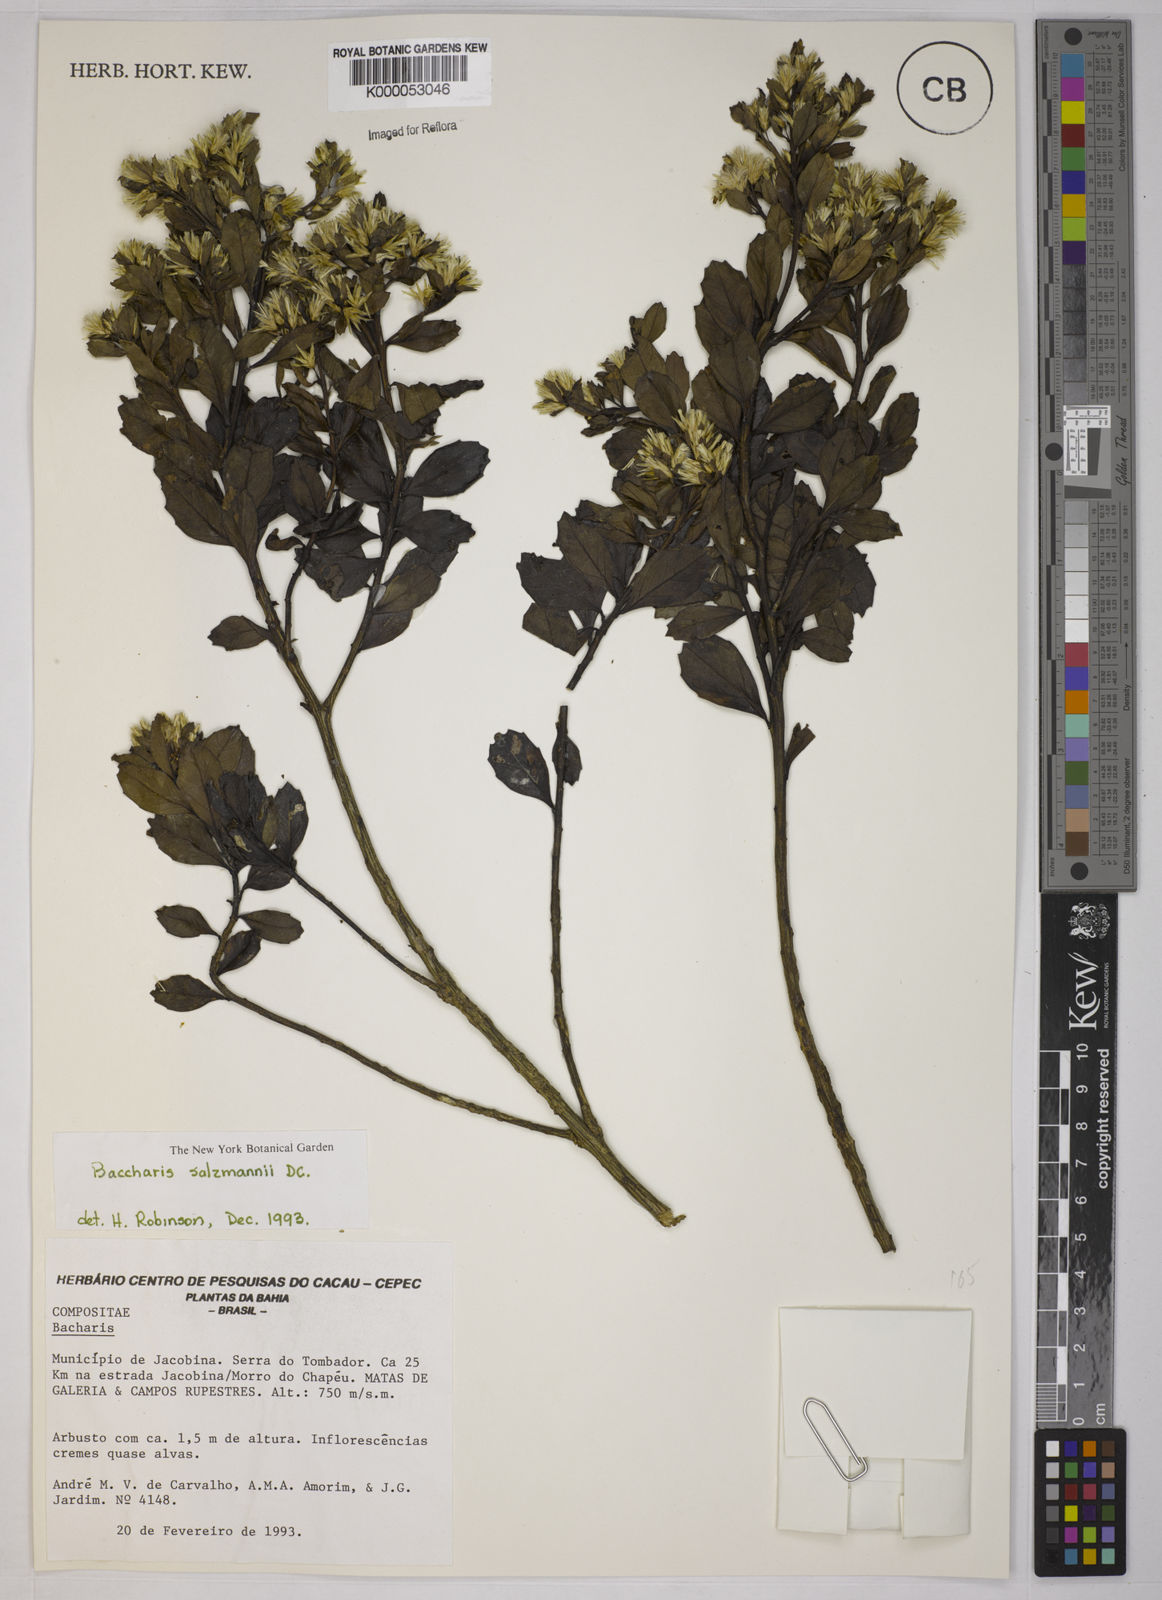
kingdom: Plantae
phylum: Tracheophyta
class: Magnoliopsida
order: Asterales
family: Asteraceae
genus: Baccharis
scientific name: Baccharis retusa
